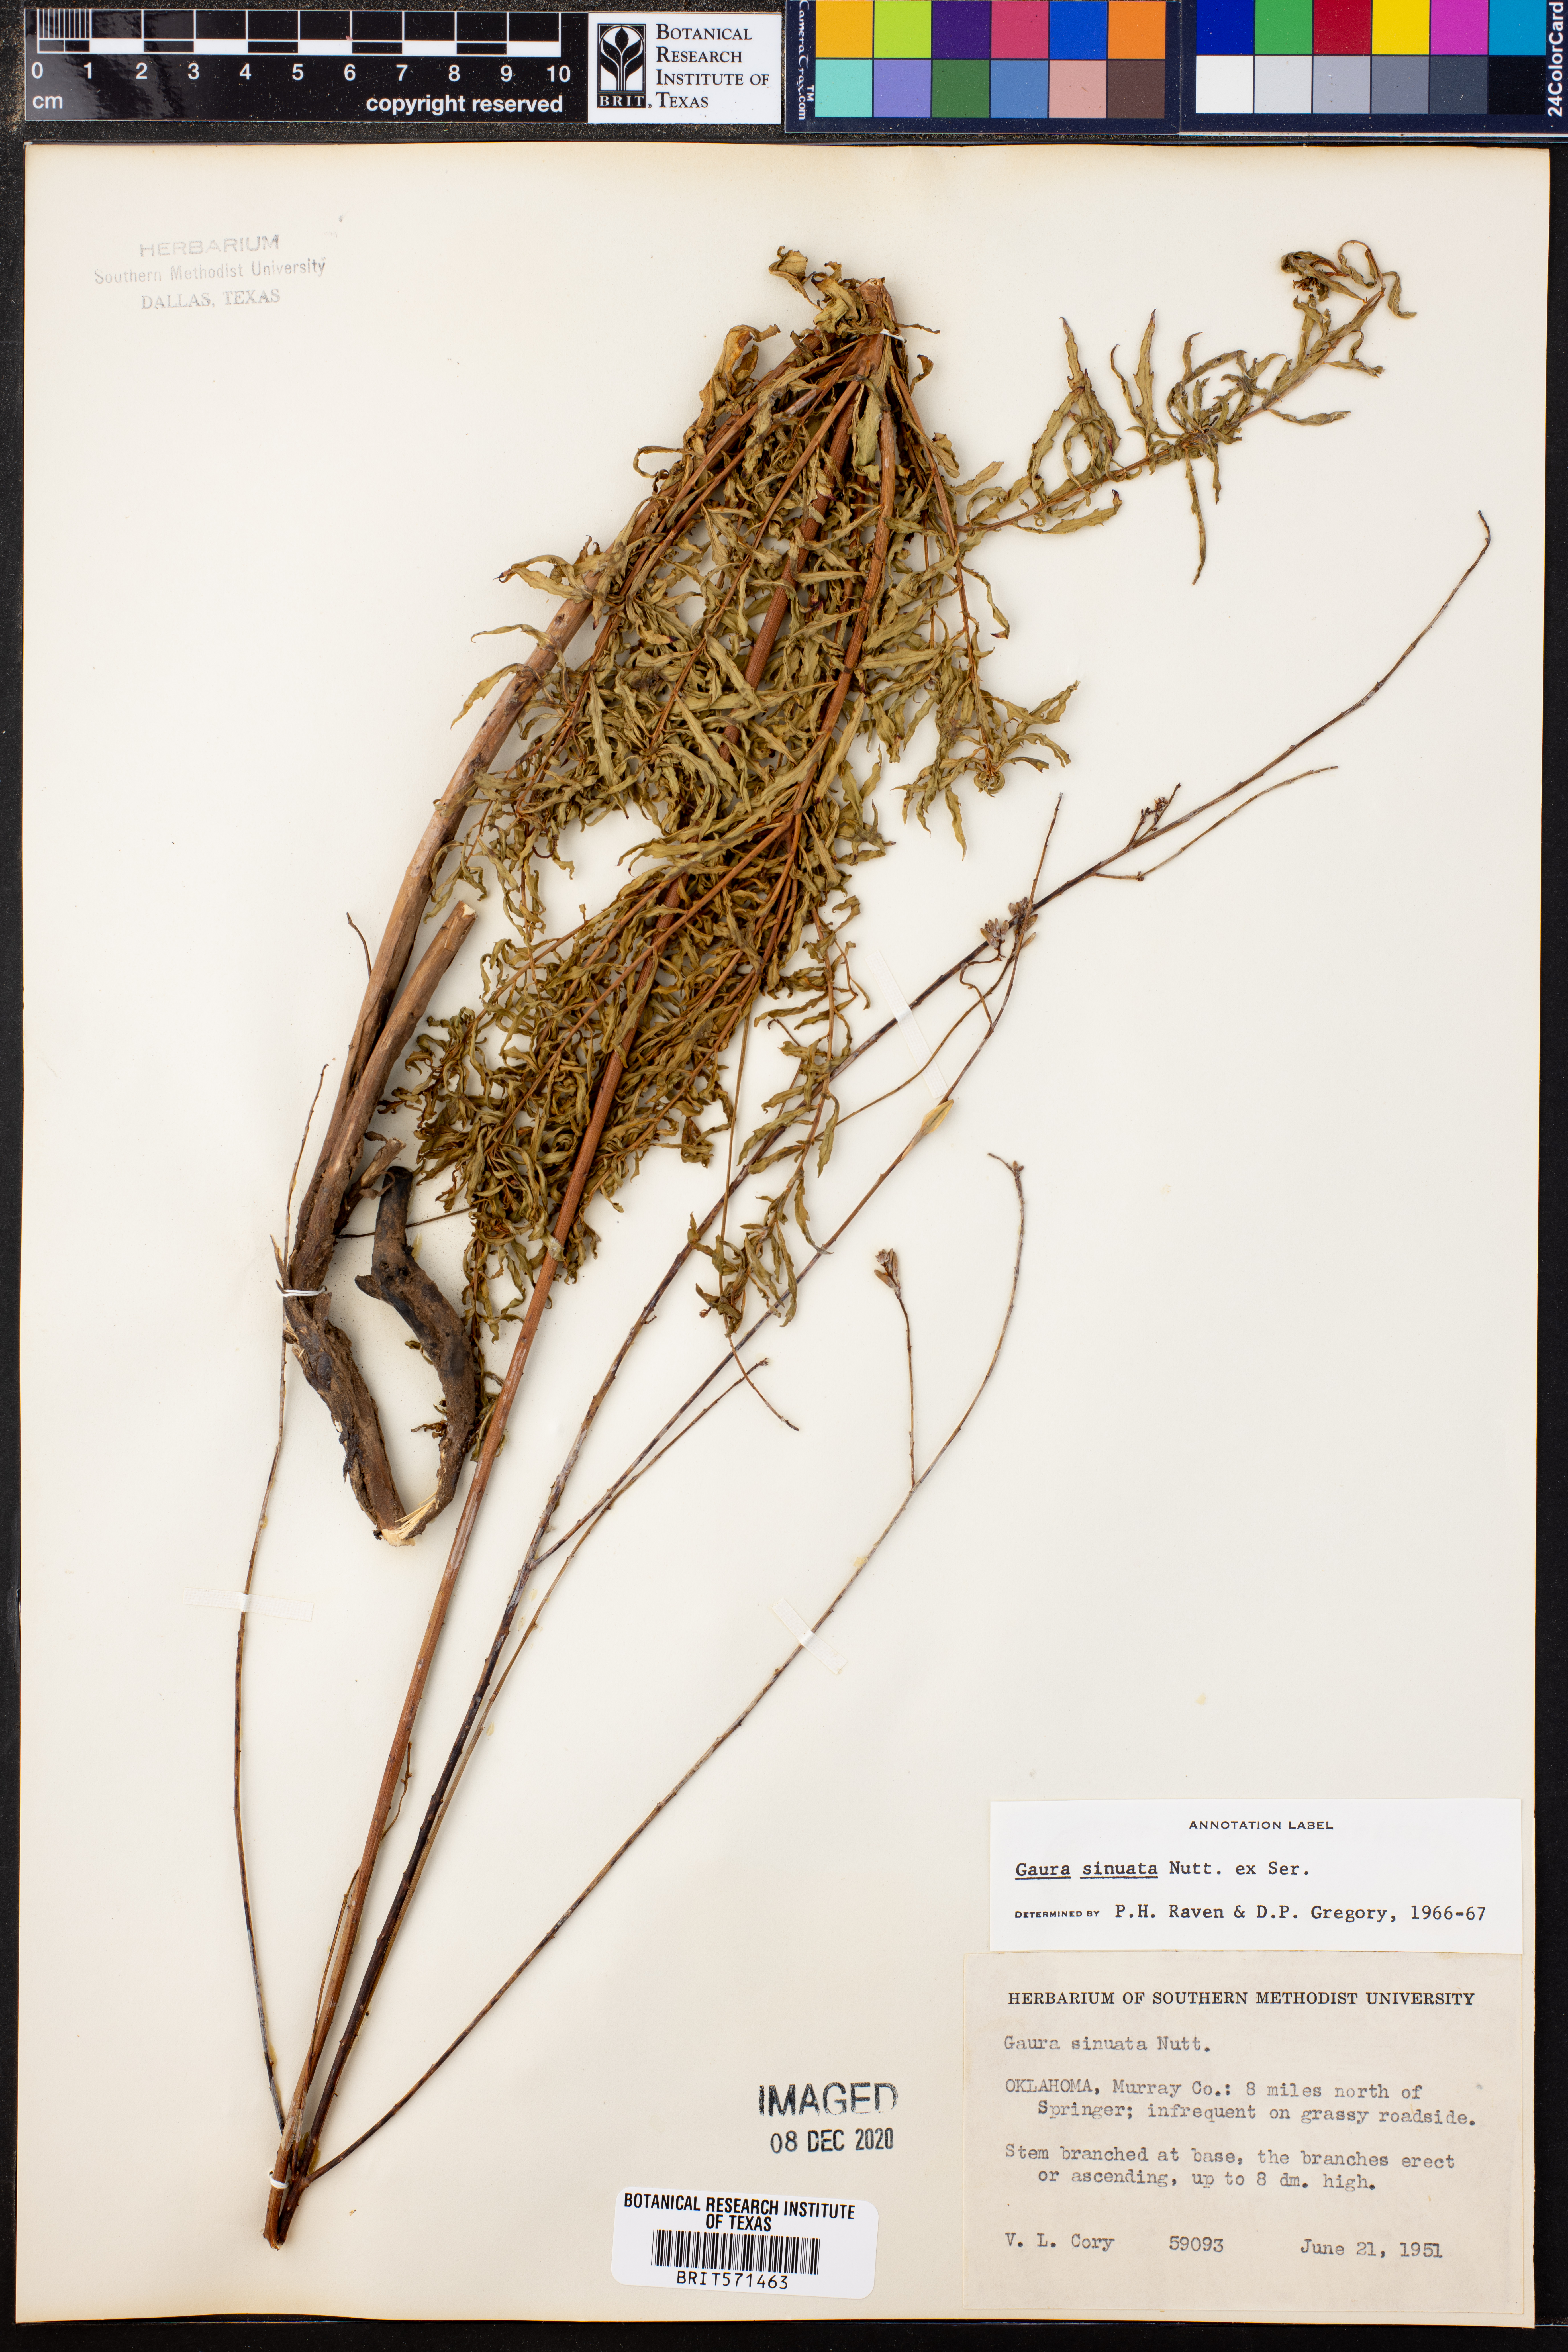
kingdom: Plantae
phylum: Tracheophyta
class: Magnoliopsida
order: Myrtales
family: Onagraceae
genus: Oenothera
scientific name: Oenothera sinuosa
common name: Wavyleaf beeblossom
